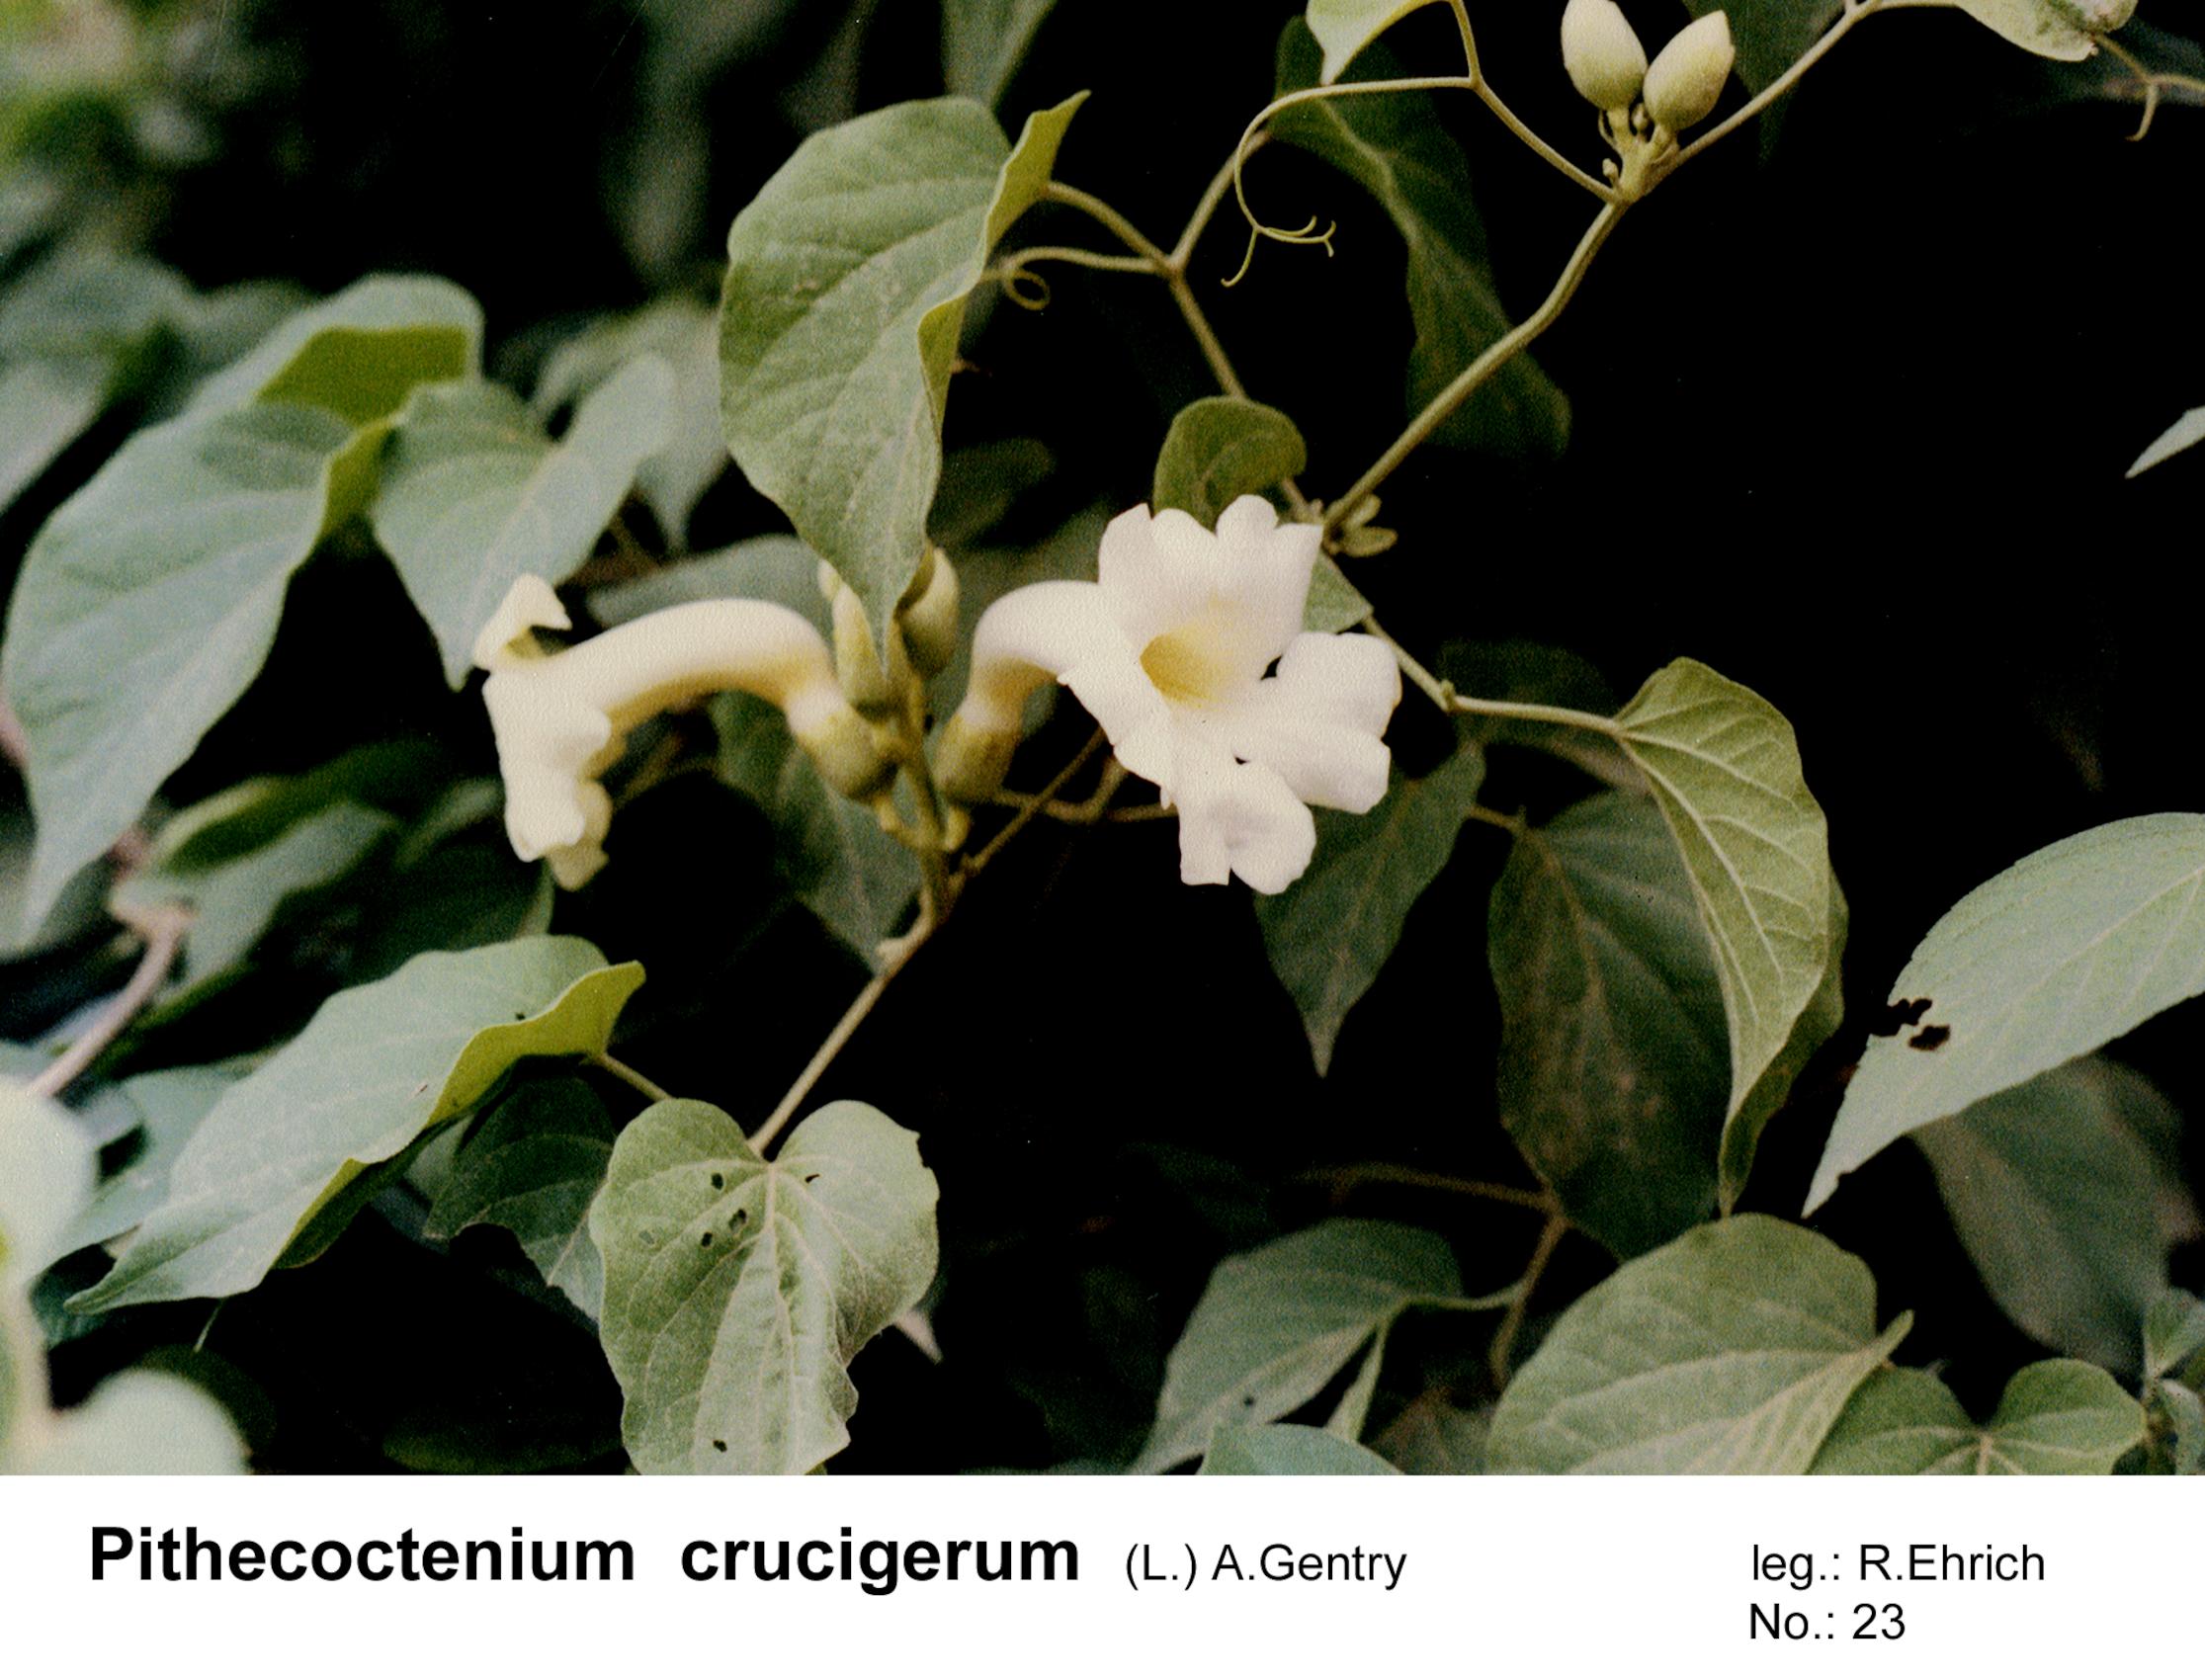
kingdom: Plantae
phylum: Tracheophyta
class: Magnoliopsida
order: Lamiales
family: Bignoniaceae
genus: Amphilophium
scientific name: Amphilophium crucigerum
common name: Monkey comb
